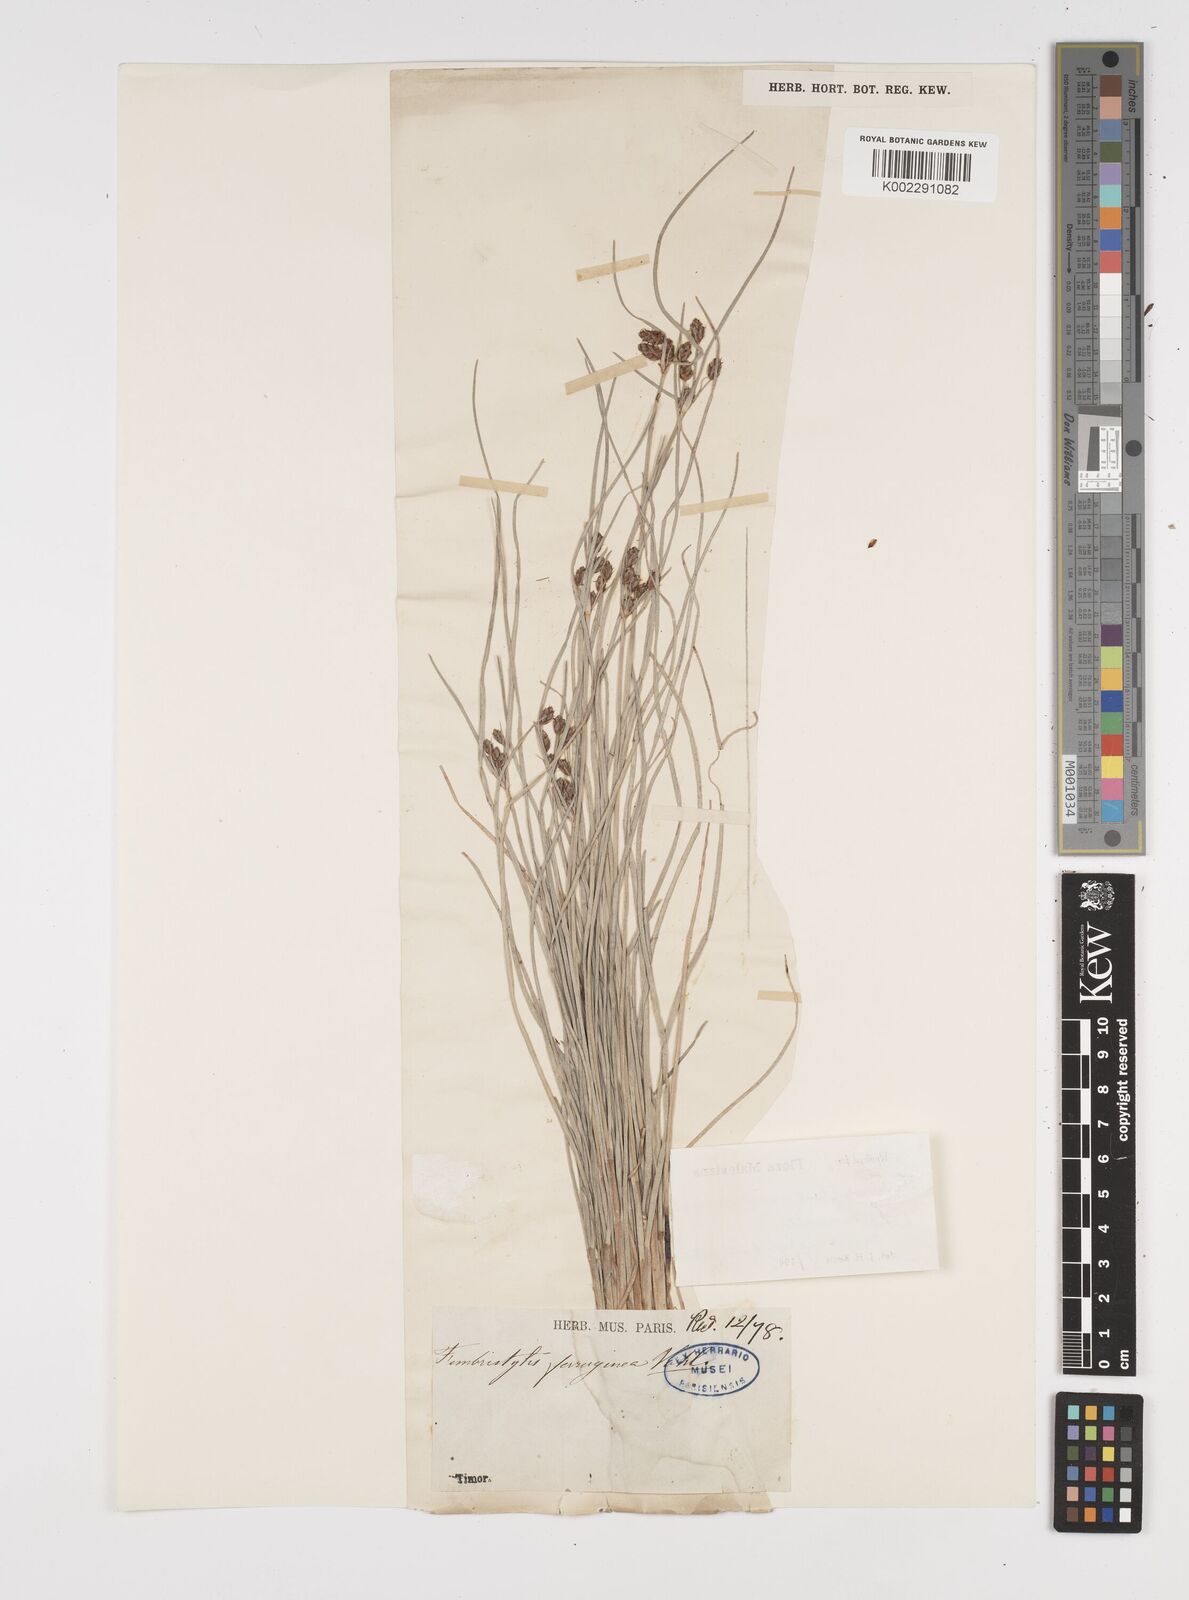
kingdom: Plantae
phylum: Tracheophyta
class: Liliopsida
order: Poales
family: Cyperaceae
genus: Fimbristylis
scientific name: Fimbristylis ferruginea
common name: West indian fimbry
